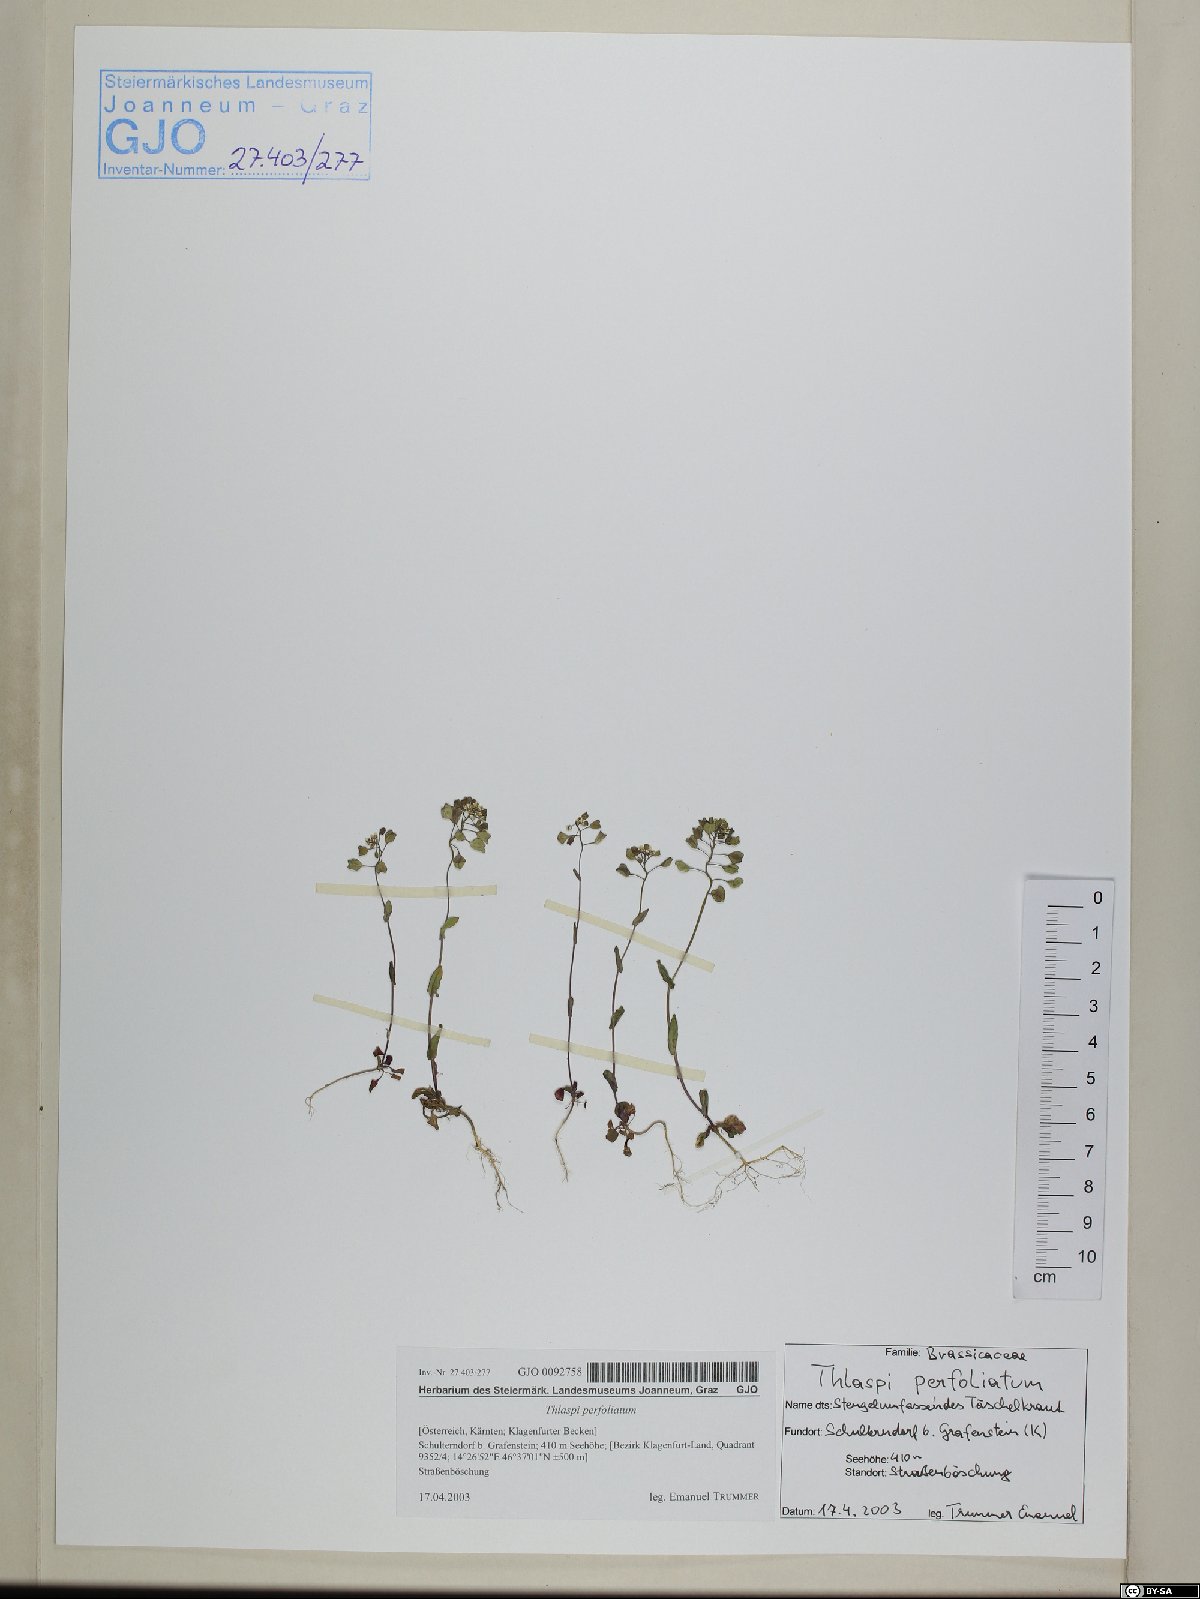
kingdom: Plantae
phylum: Tracheophyta
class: Magnoliopsida
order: Brassicales
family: Brassicaceae
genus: Noccaea
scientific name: Noccaea perfoliata
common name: Perfoliate pennycress
